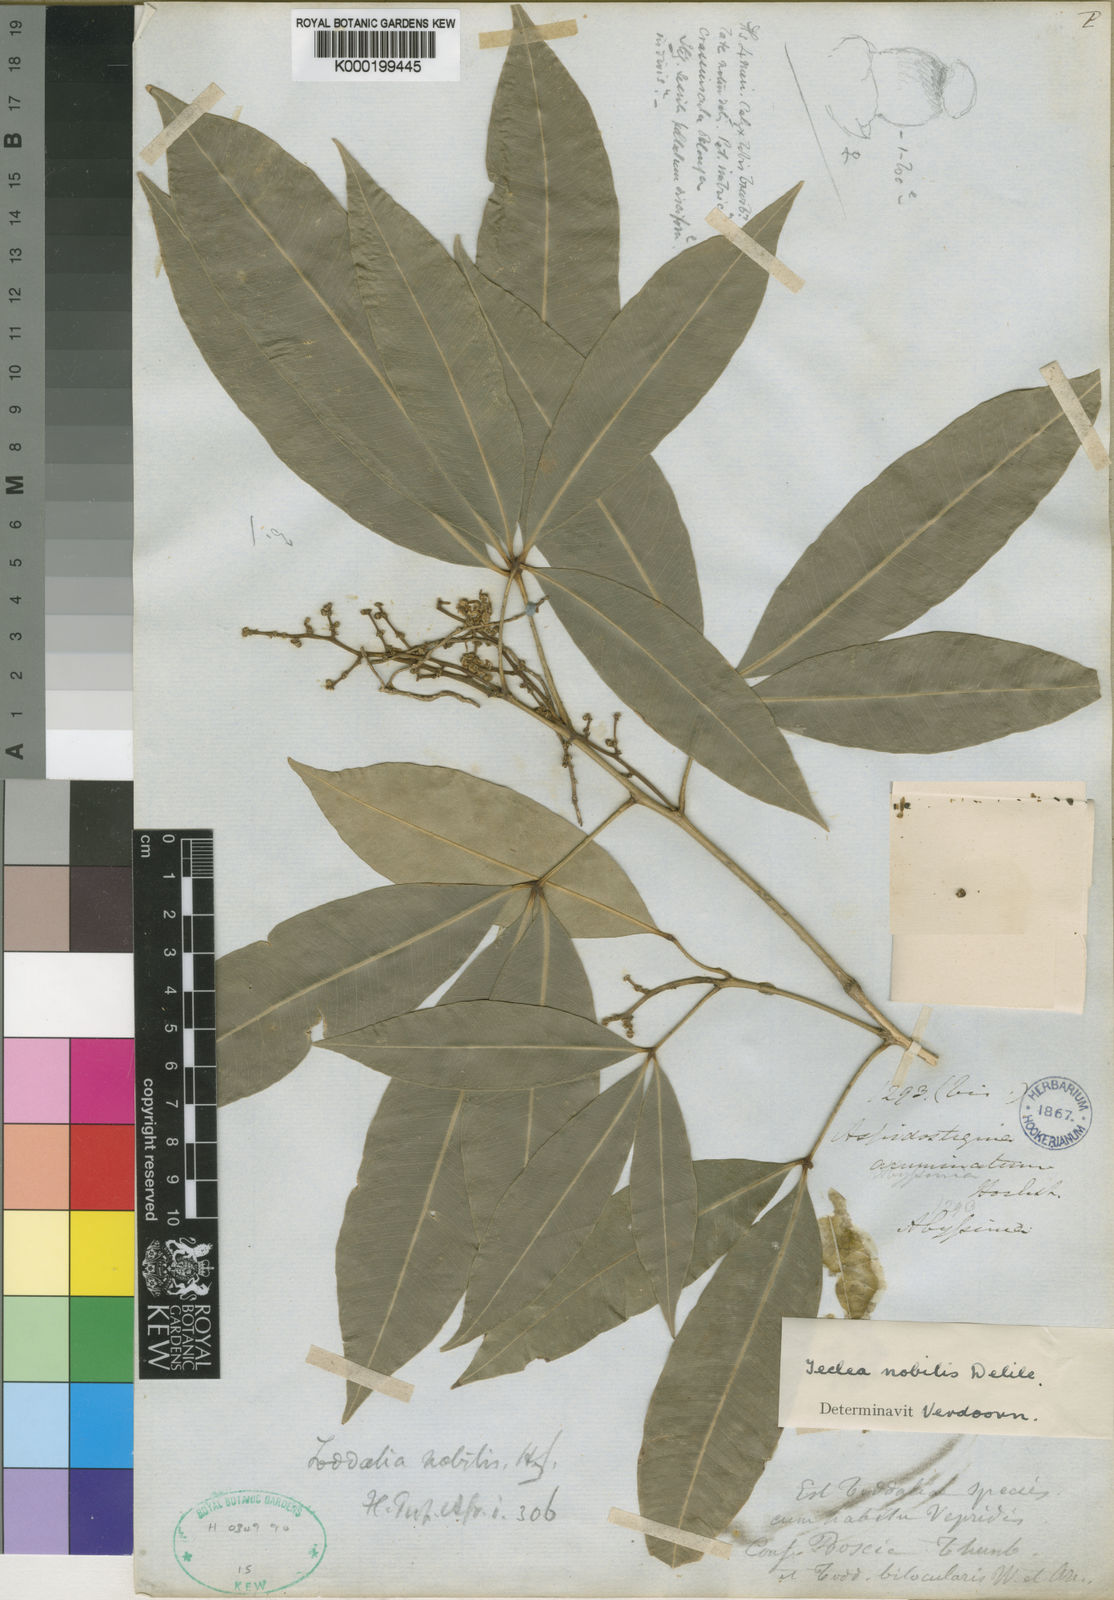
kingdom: Plantae
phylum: Tracheophyta
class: Magnoliopsida
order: Sapindales
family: Rutaceae
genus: Vepris
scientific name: Vepris nobilis
